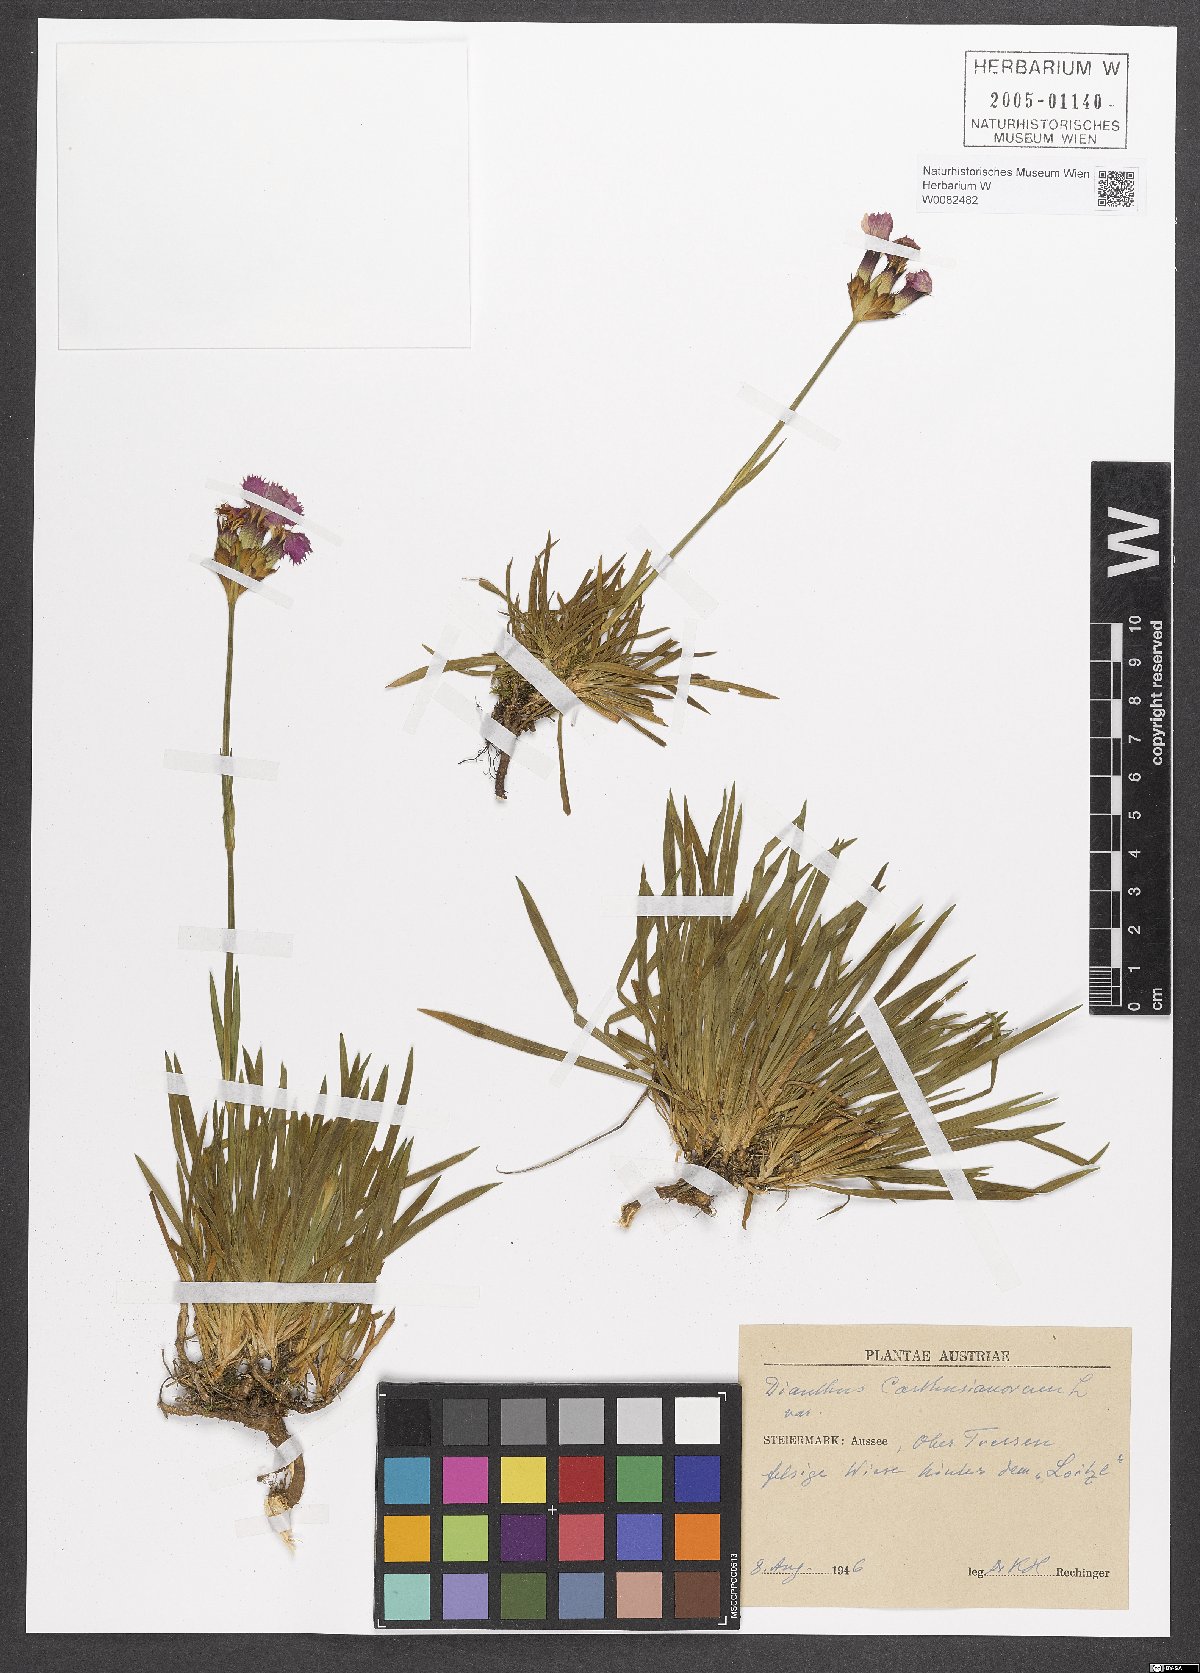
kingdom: Plantae
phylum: Tracheophyta
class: Magnoliopsida
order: Caryophyllales
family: Caryophyllaceae
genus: Dianthus
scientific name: Dianthus carthusianorum
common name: Carthusian pink
